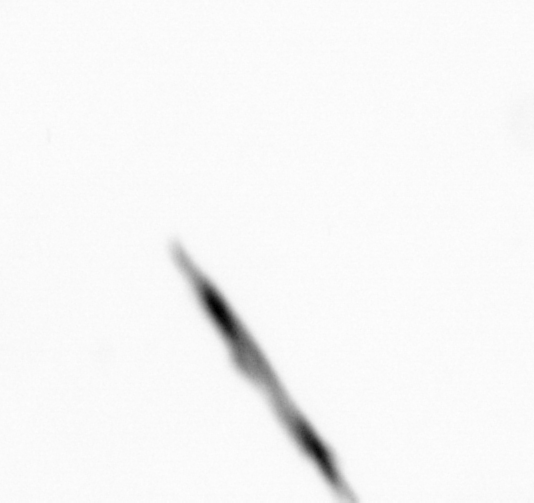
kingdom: Chromista
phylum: Ochrophyta
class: Bacillariophyceae
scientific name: Bacillariophyceae
